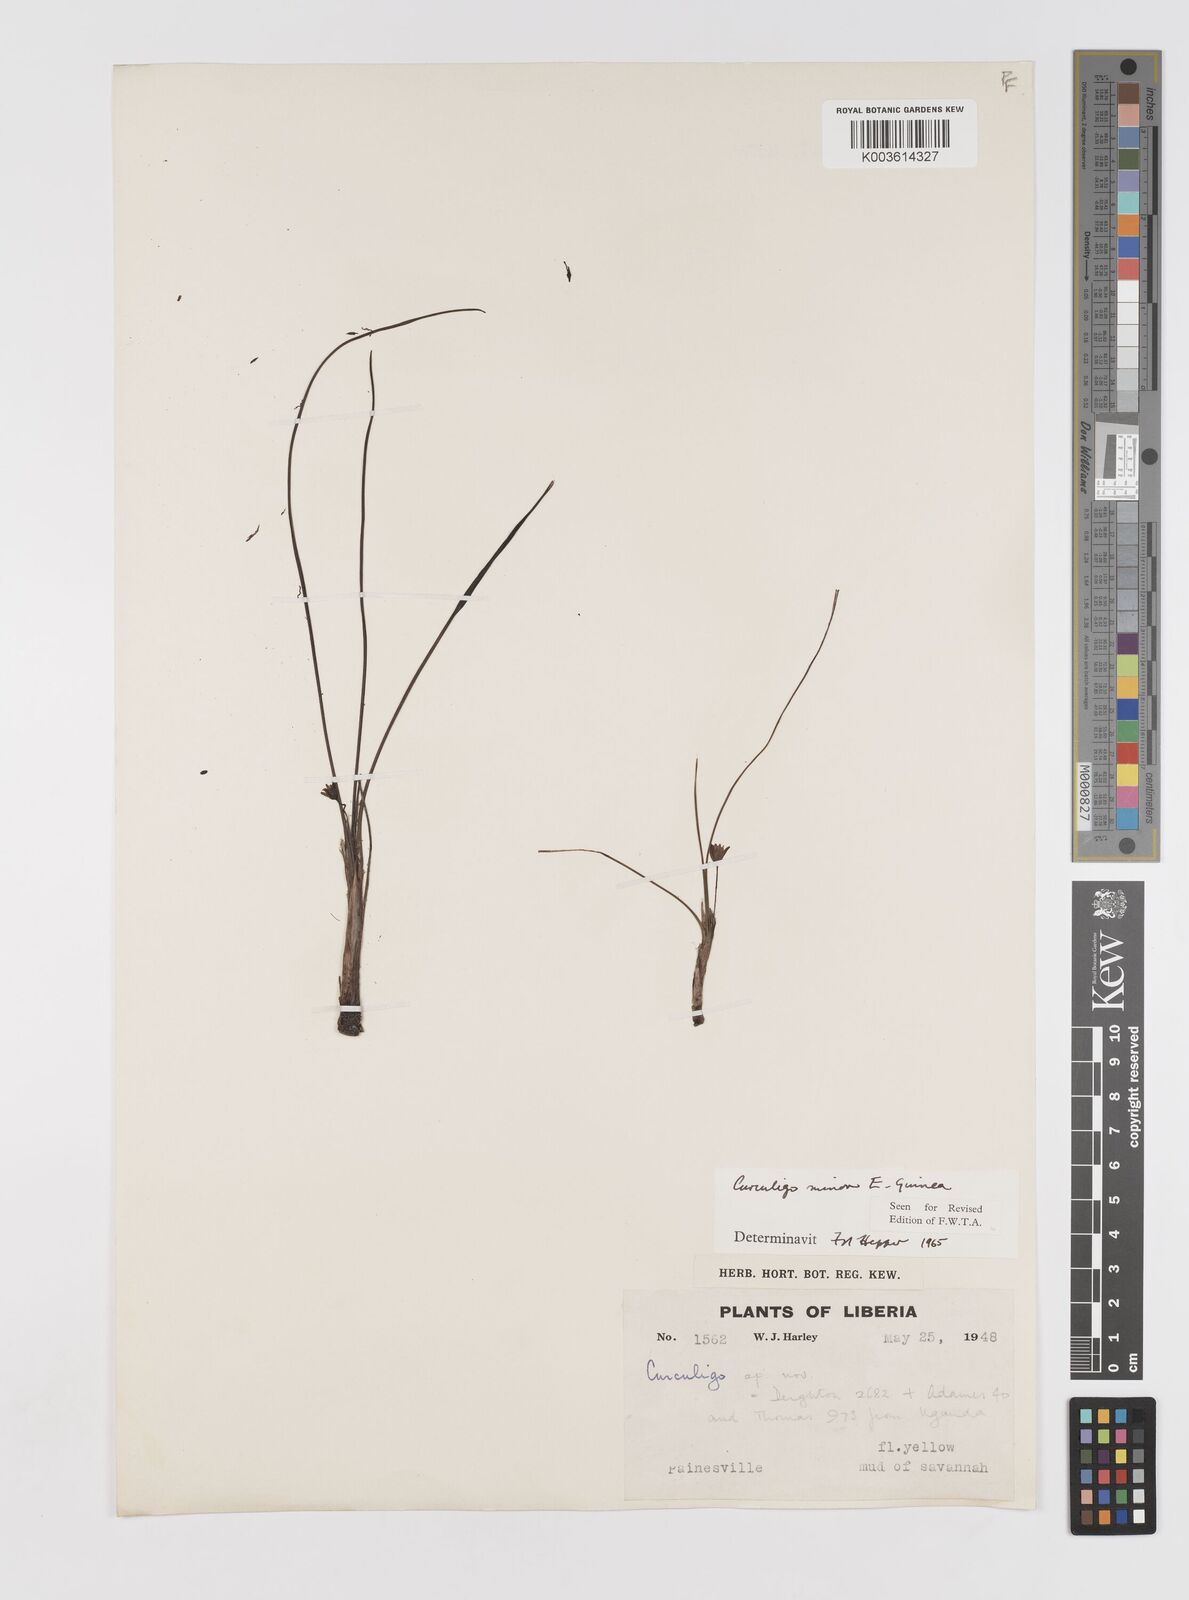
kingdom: Plantae
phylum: Tracheophyta
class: Liliopsida
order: Asparagales
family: Hypoxidaceae
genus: Curculigo
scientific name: Curculigo pilosa
